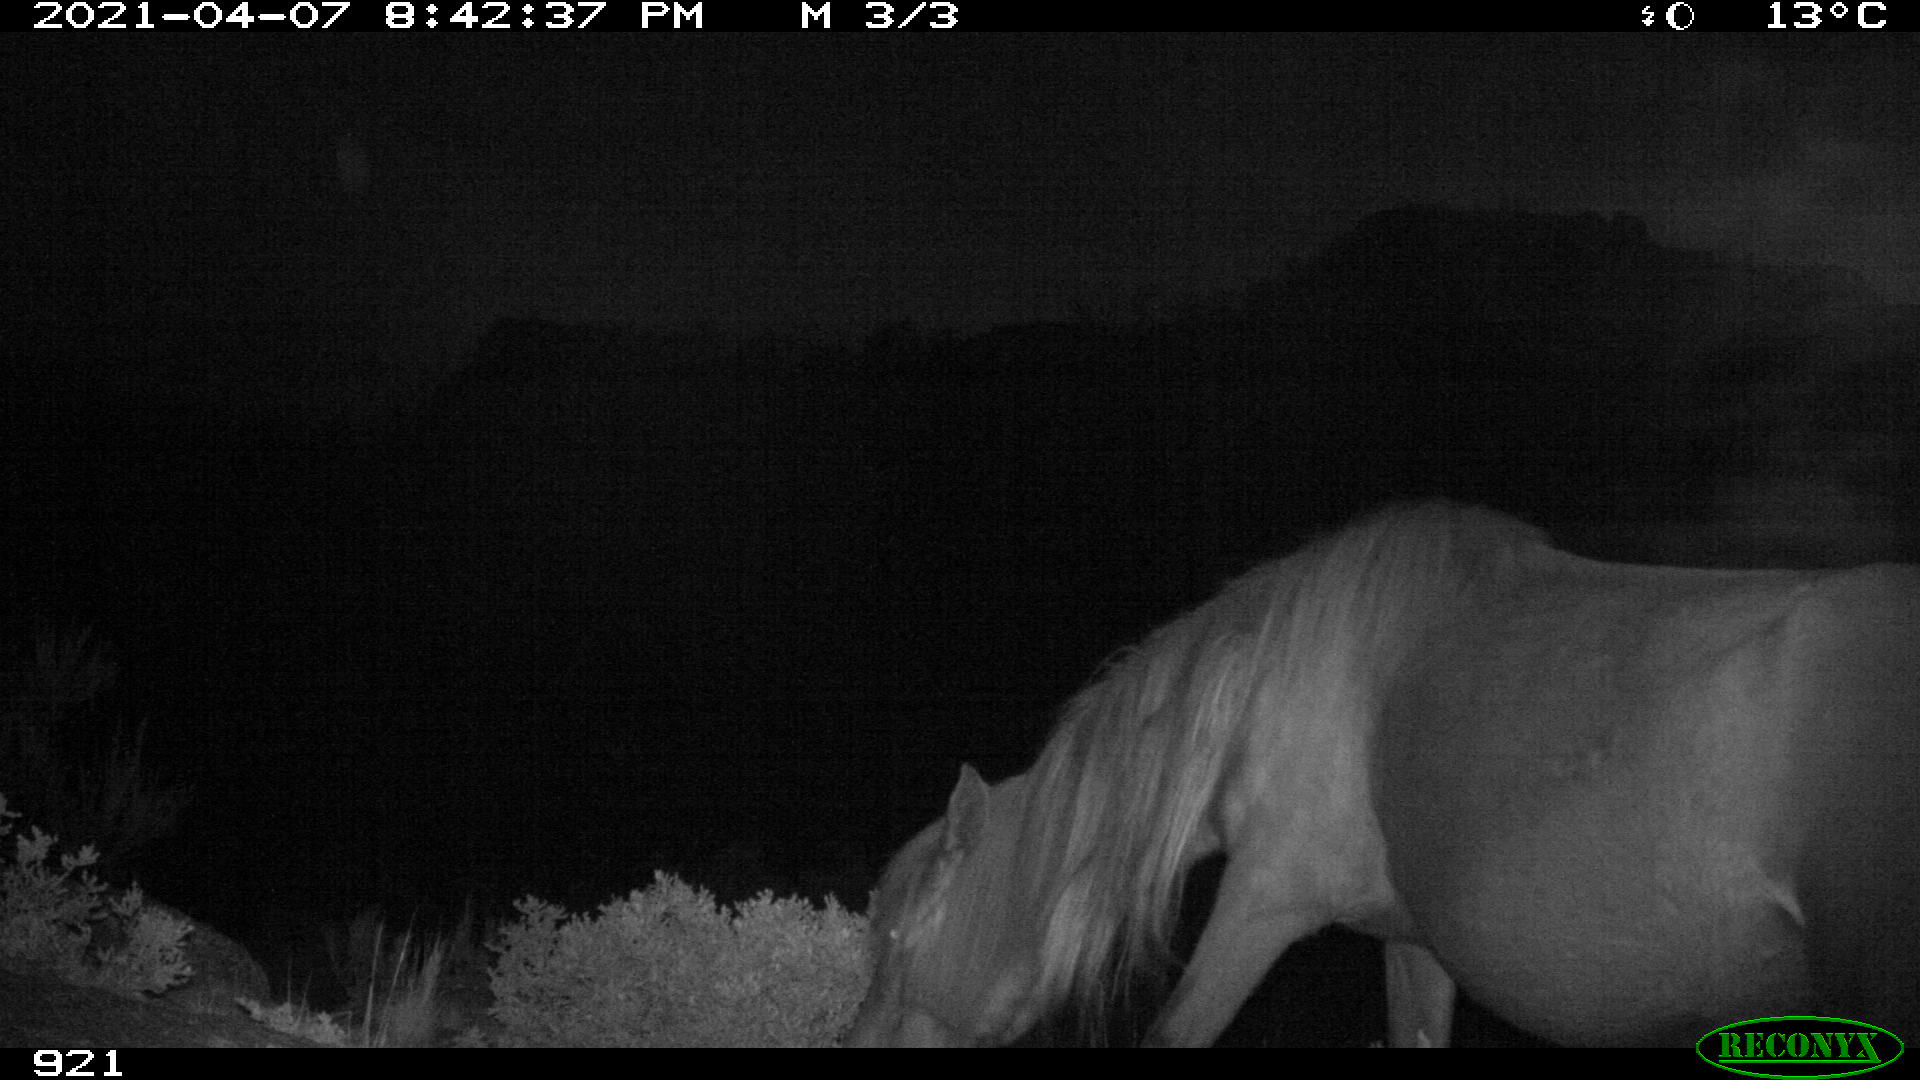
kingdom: Animalia
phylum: Chordata
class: Mammalia
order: Perissodactyla
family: Equidae
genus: Equus
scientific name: Equus caballus
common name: Horse
